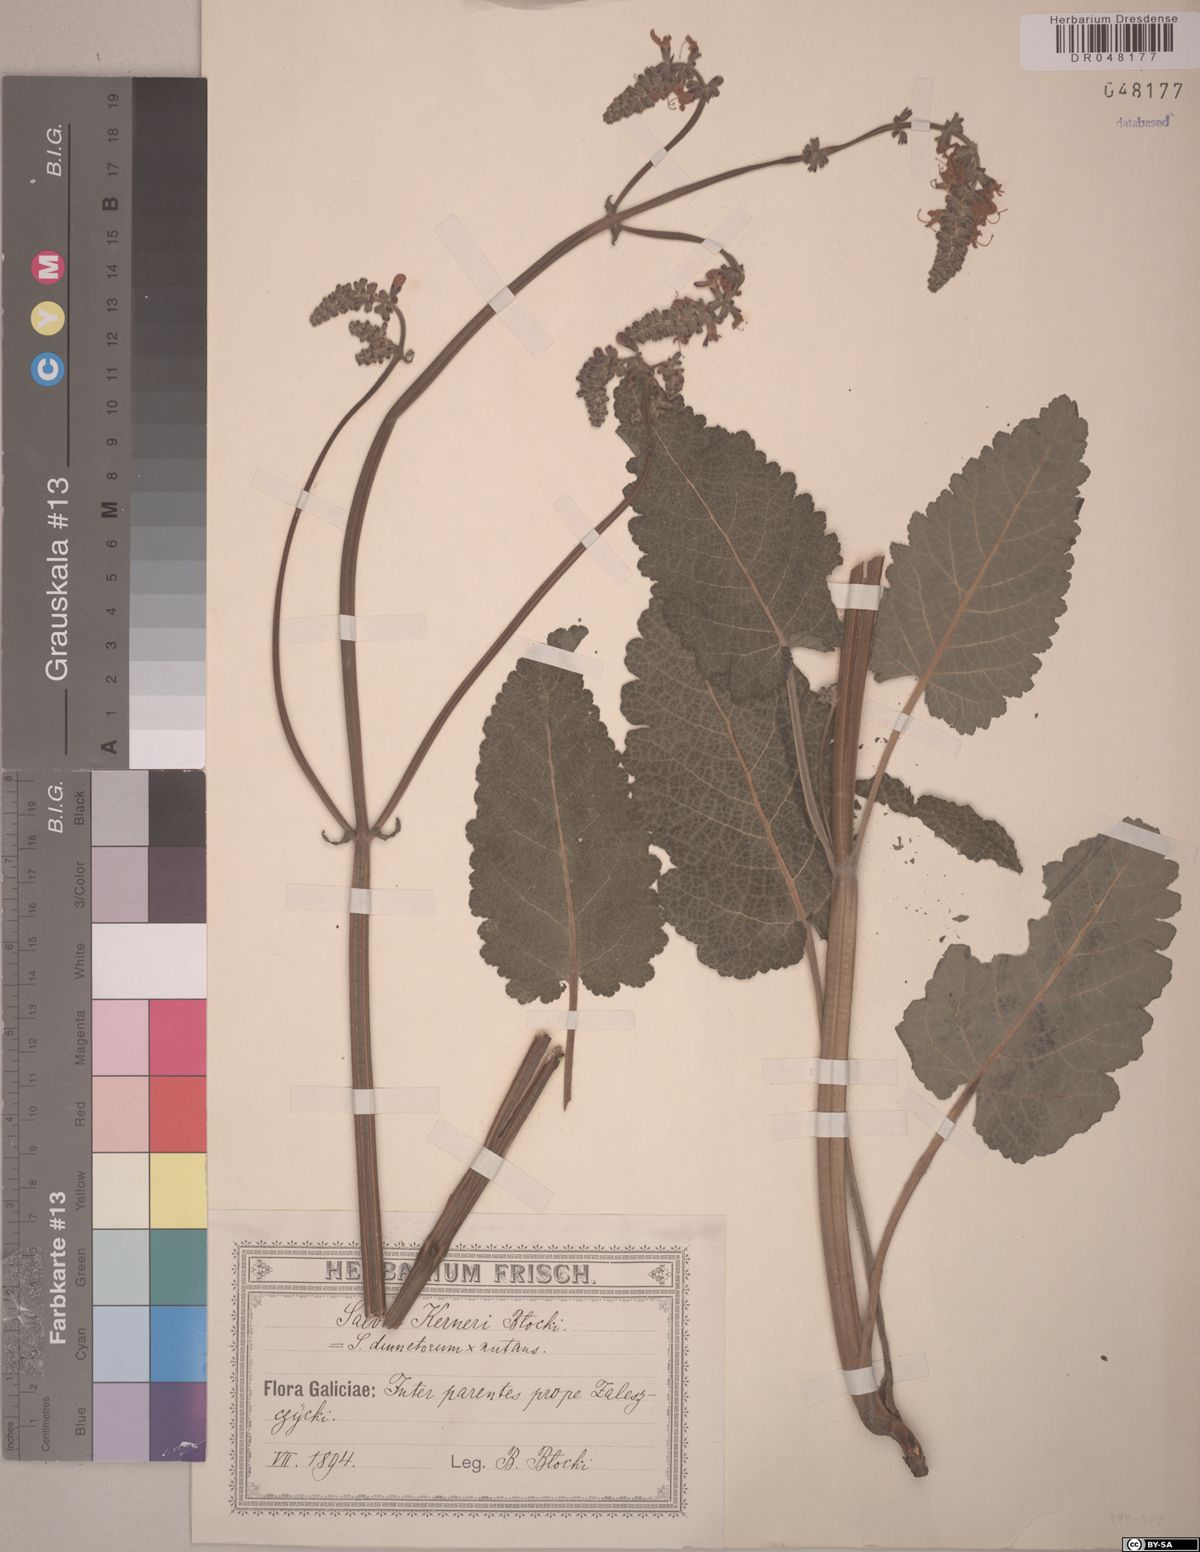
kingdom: Plantae
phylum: Tracheophyta
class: Magnoliopsida
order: Lamiales
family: Lamiaceae
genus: Salvia
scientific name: Salvia kerneri
